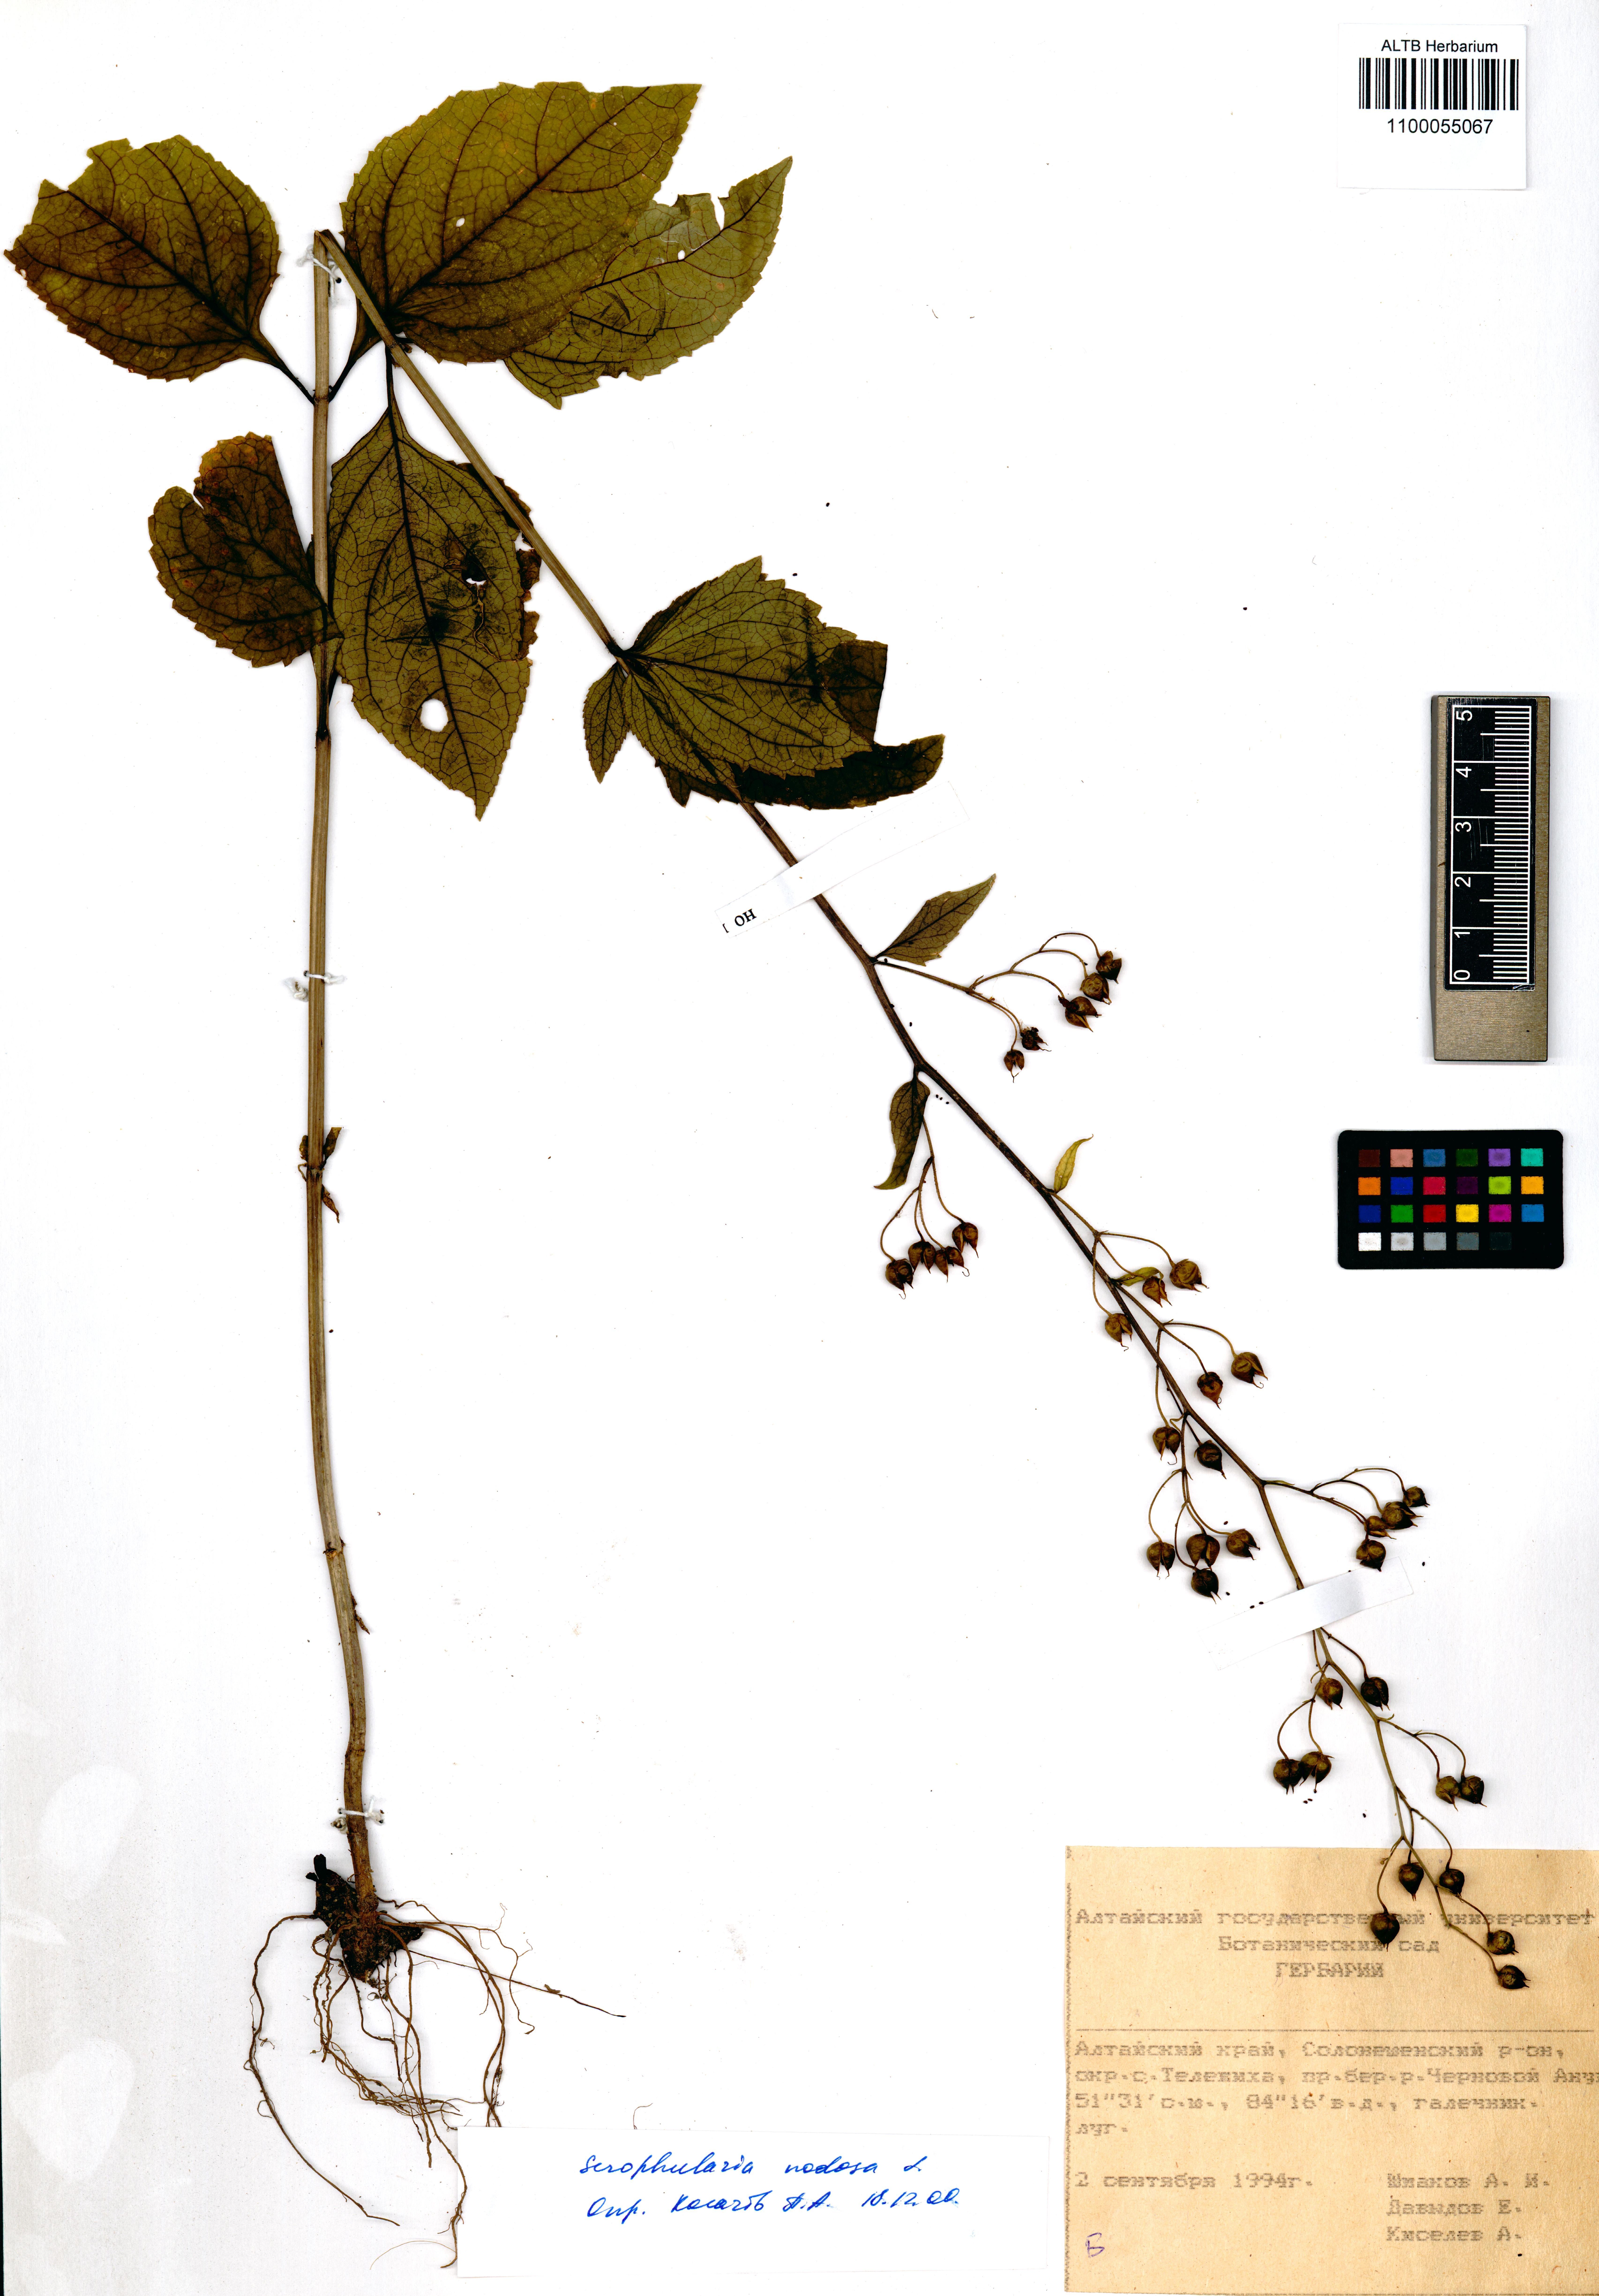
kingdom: Plantae
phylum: Tracheophyta
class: Magnoliopsida
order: Lamiales
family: Scrophulariaceae
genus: Scrophularia
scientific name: Scrophularia nodosa
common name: Common figwort
